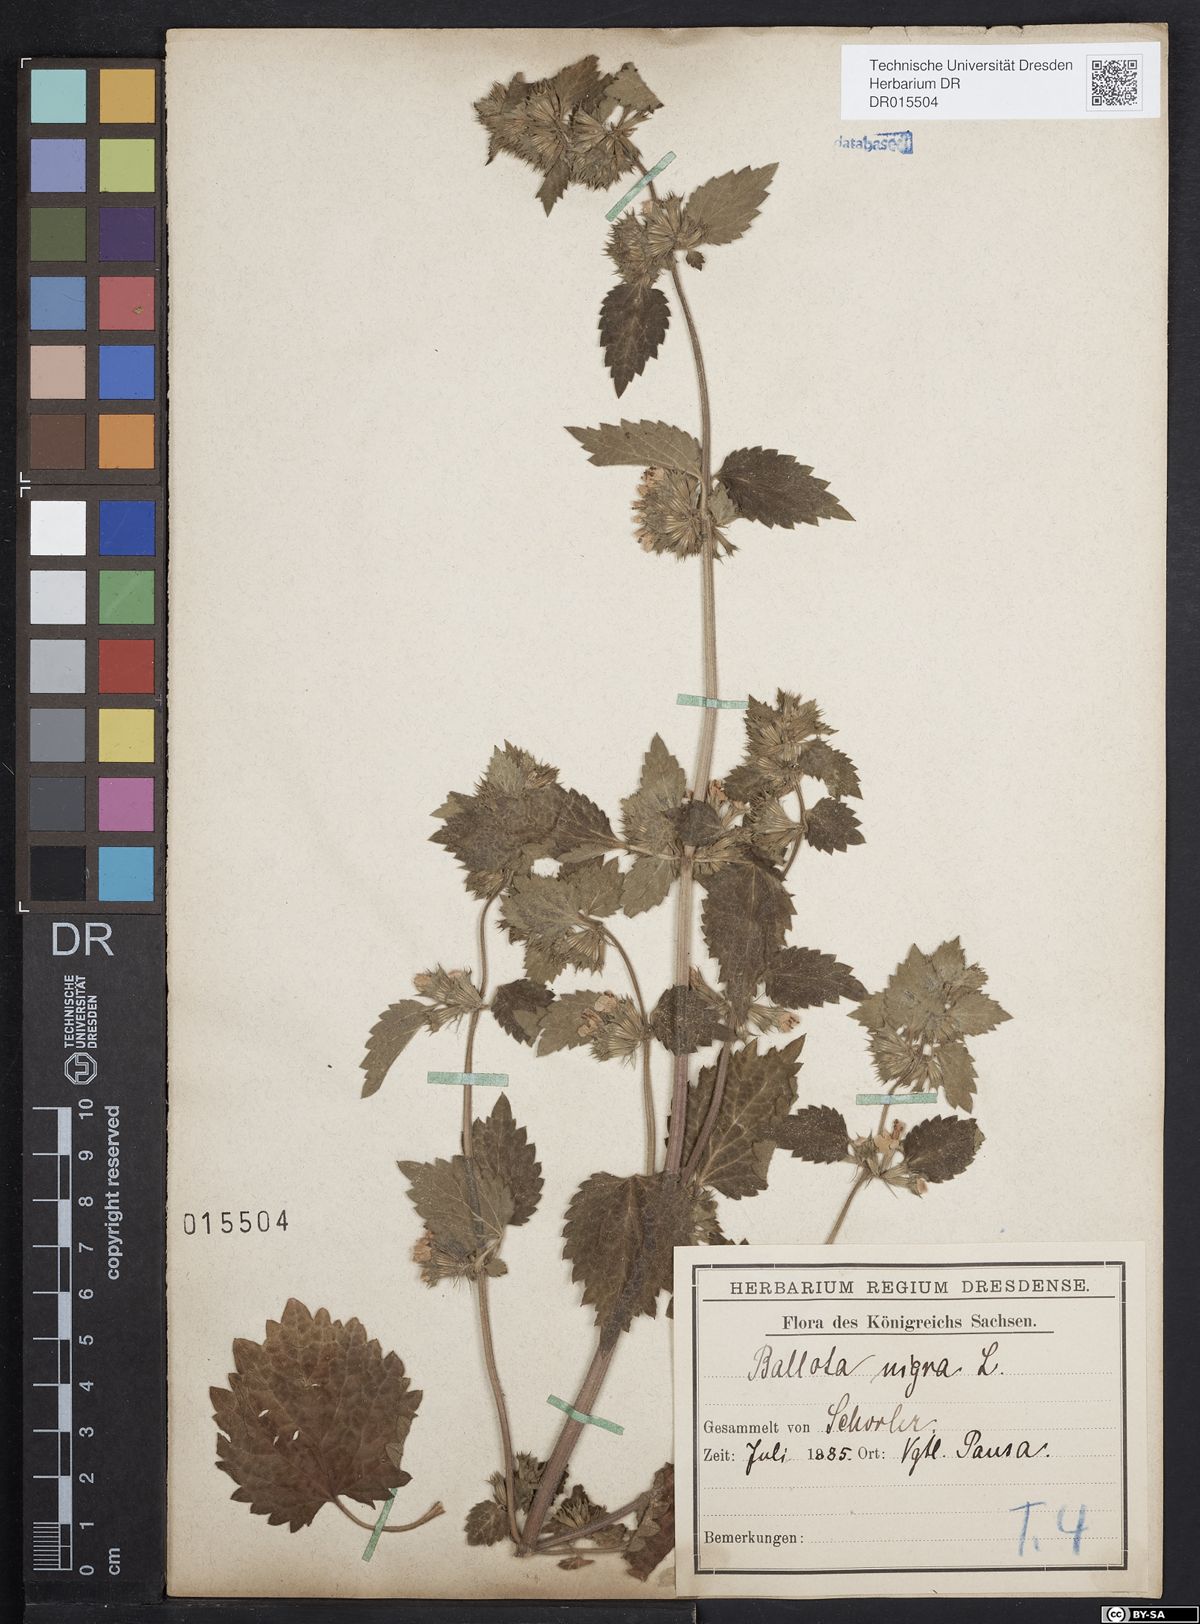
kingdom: Plantae
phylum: Tracheophyta
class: Magnoliopsida
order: Lamiales
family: Lamiaceae
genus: Ballota
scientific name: Ballota nigra
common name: Black horehound
